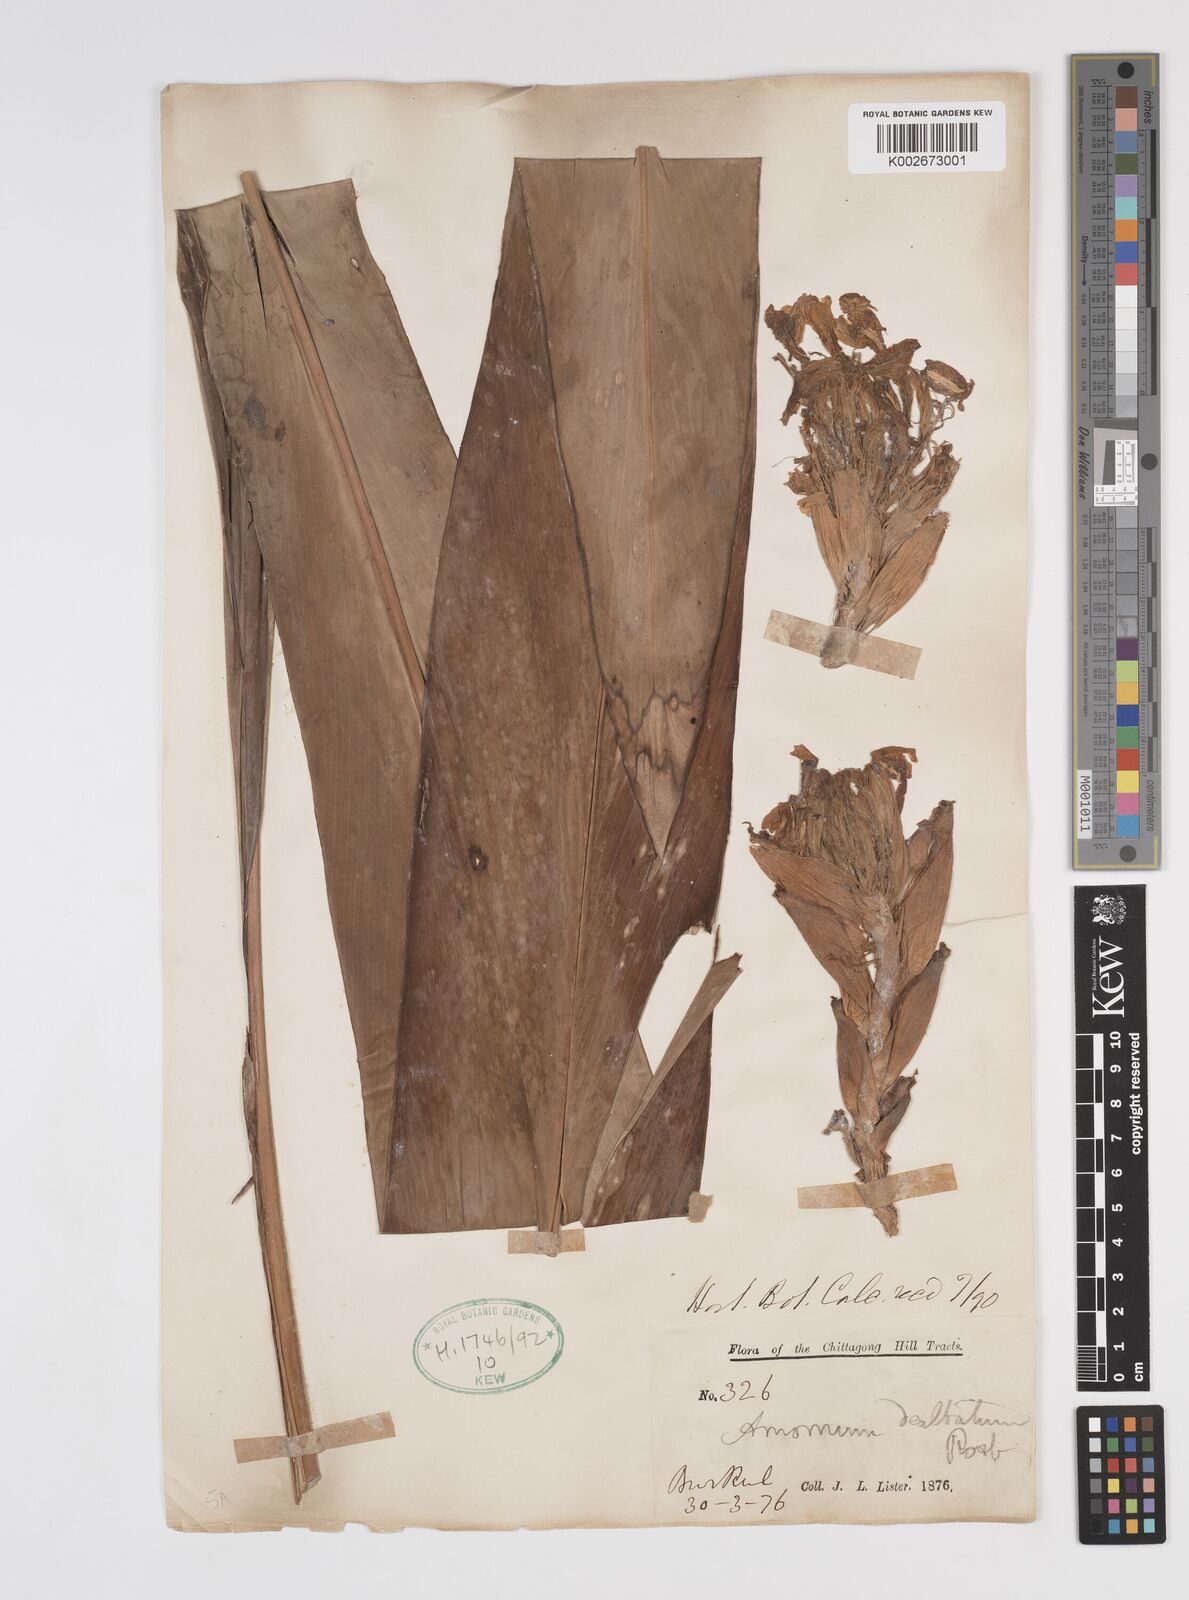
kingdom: Plantae
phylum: Tracheophyta
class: Liliopsida
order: Zingiberales
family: Zingiberaceae
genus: Amomum
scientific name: Amomum dealbatum
